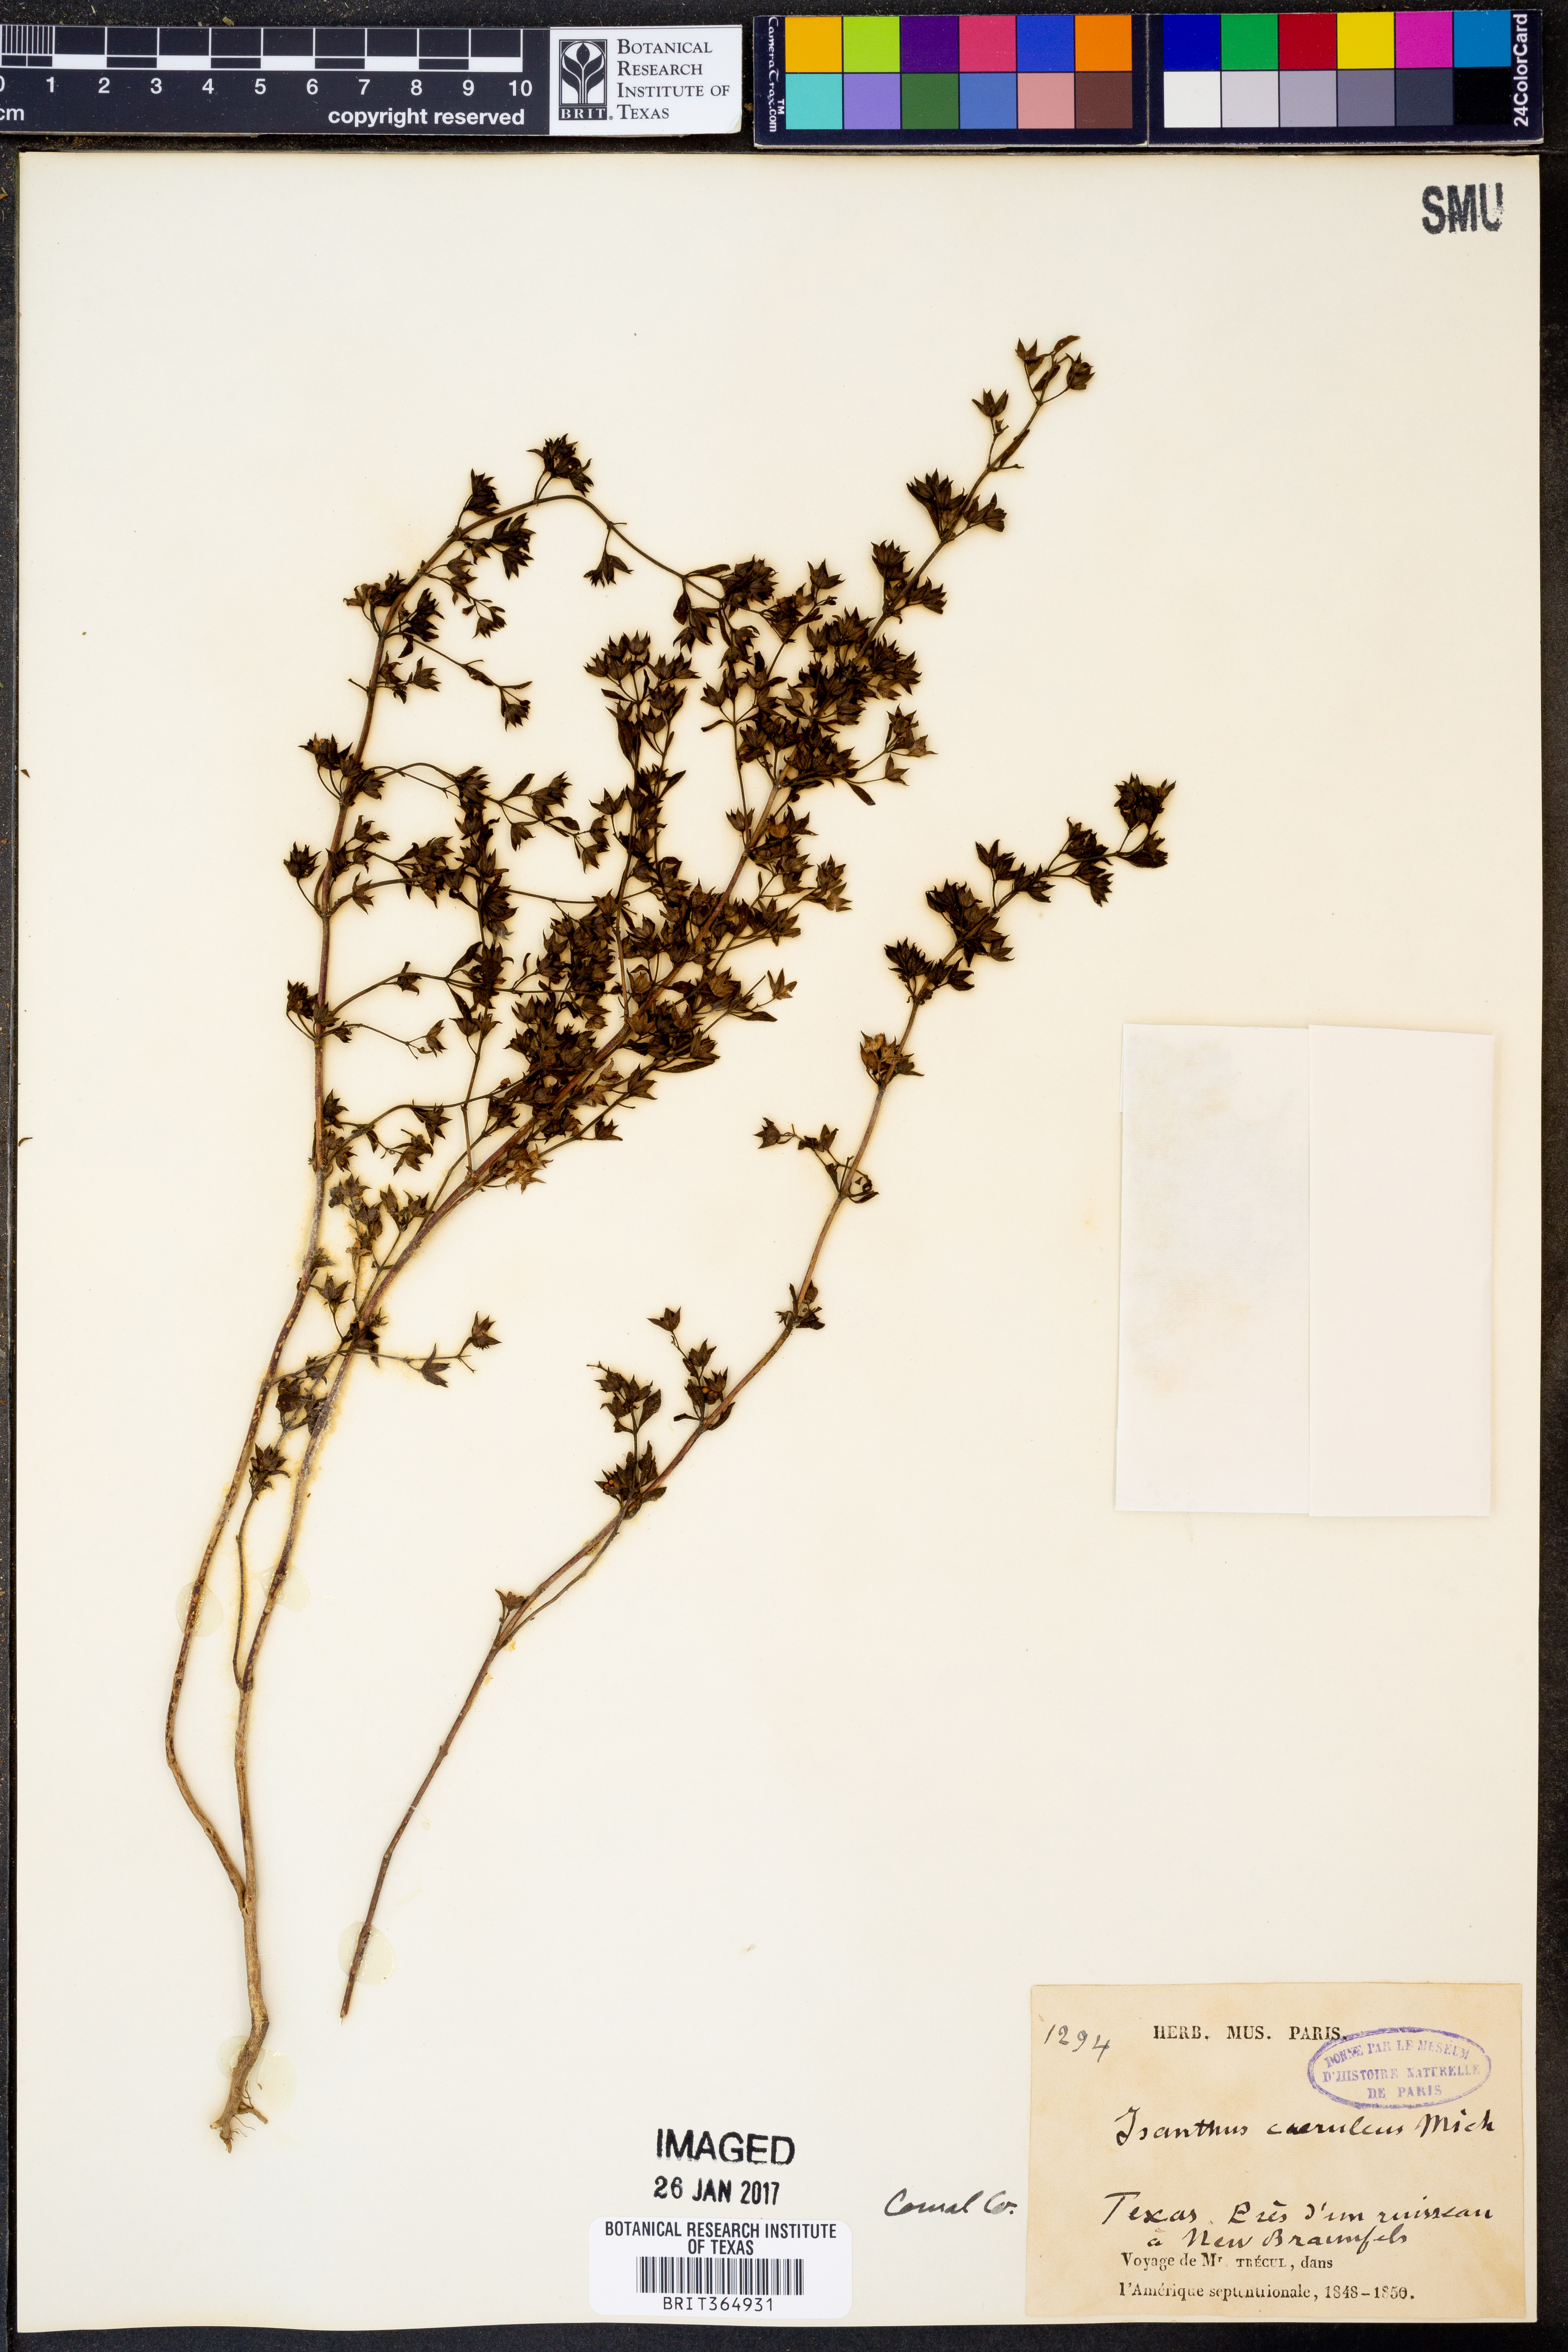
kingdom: Plantae
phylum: Tracheophyta
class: Magnoliopsida
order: Lamiales
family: Lamiaceae
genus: Trichostema
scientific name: Trichostema brachiatum
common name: False pennyroyal
